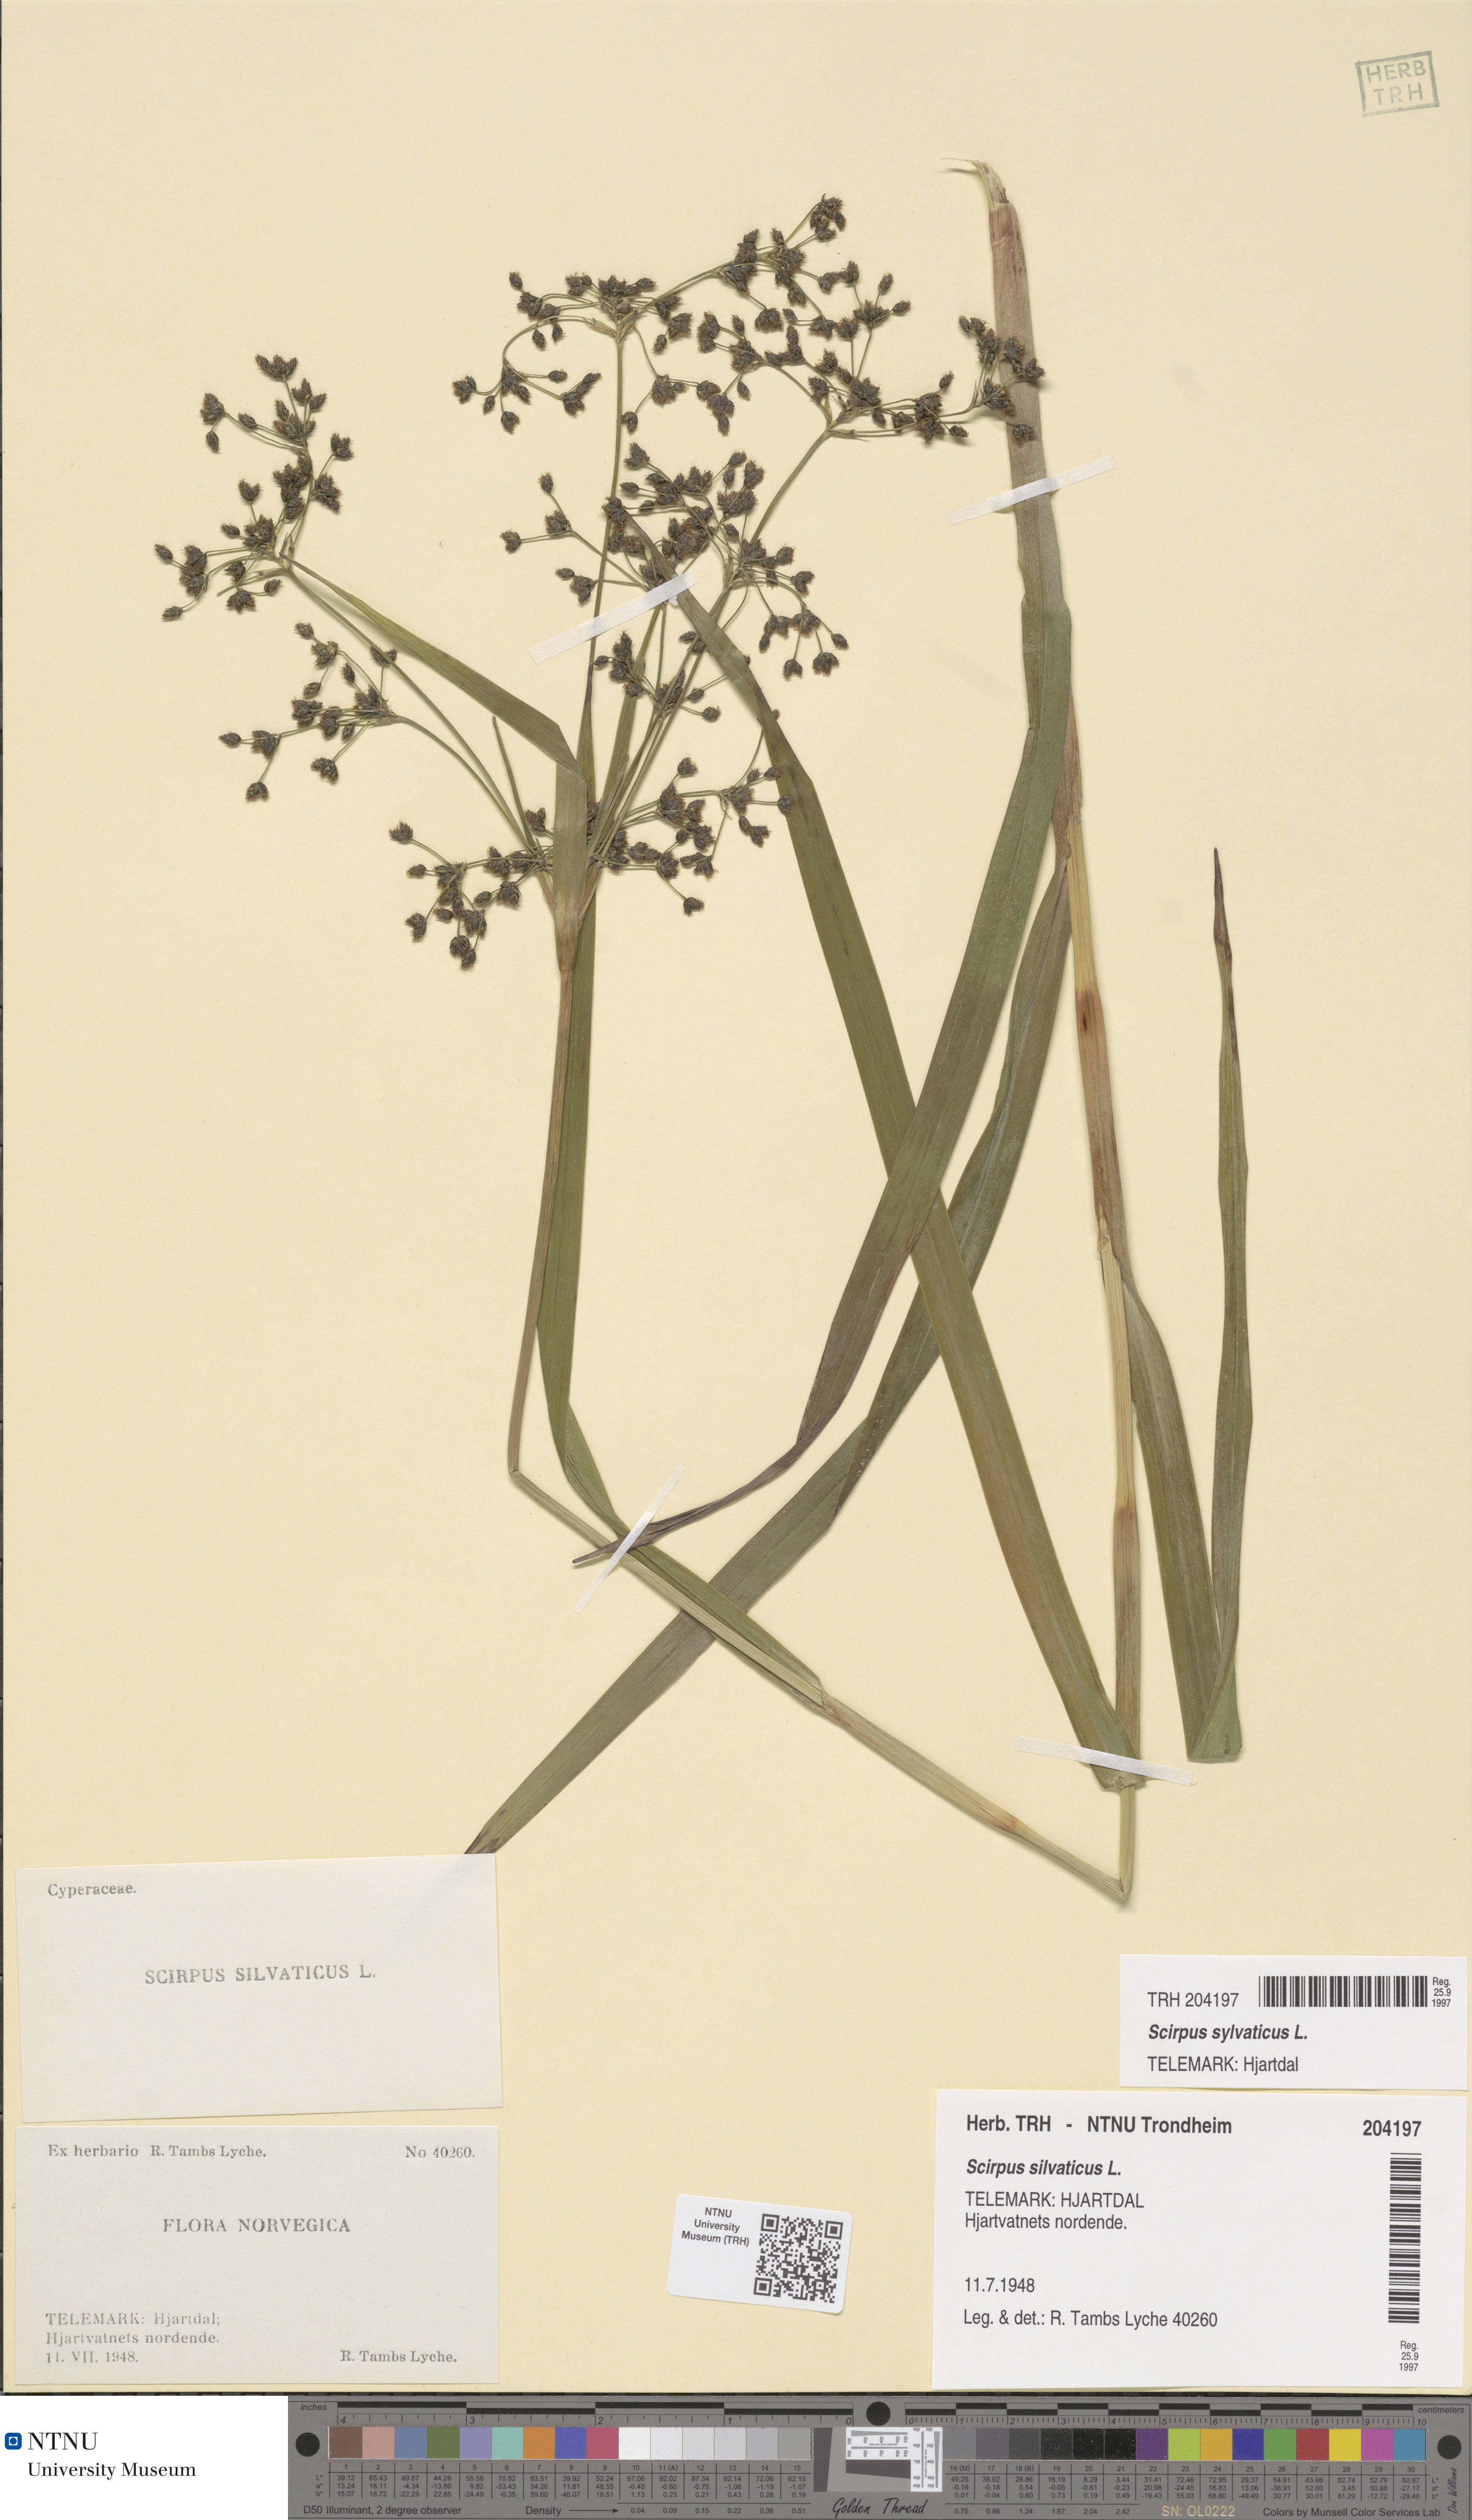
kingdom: Plantae
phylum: Tracheophyta
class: Liliopsida
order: Poales
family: Cyperaceae
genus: Scirpus
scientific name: Scirpus sylvaticus
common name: Wood club-rush
